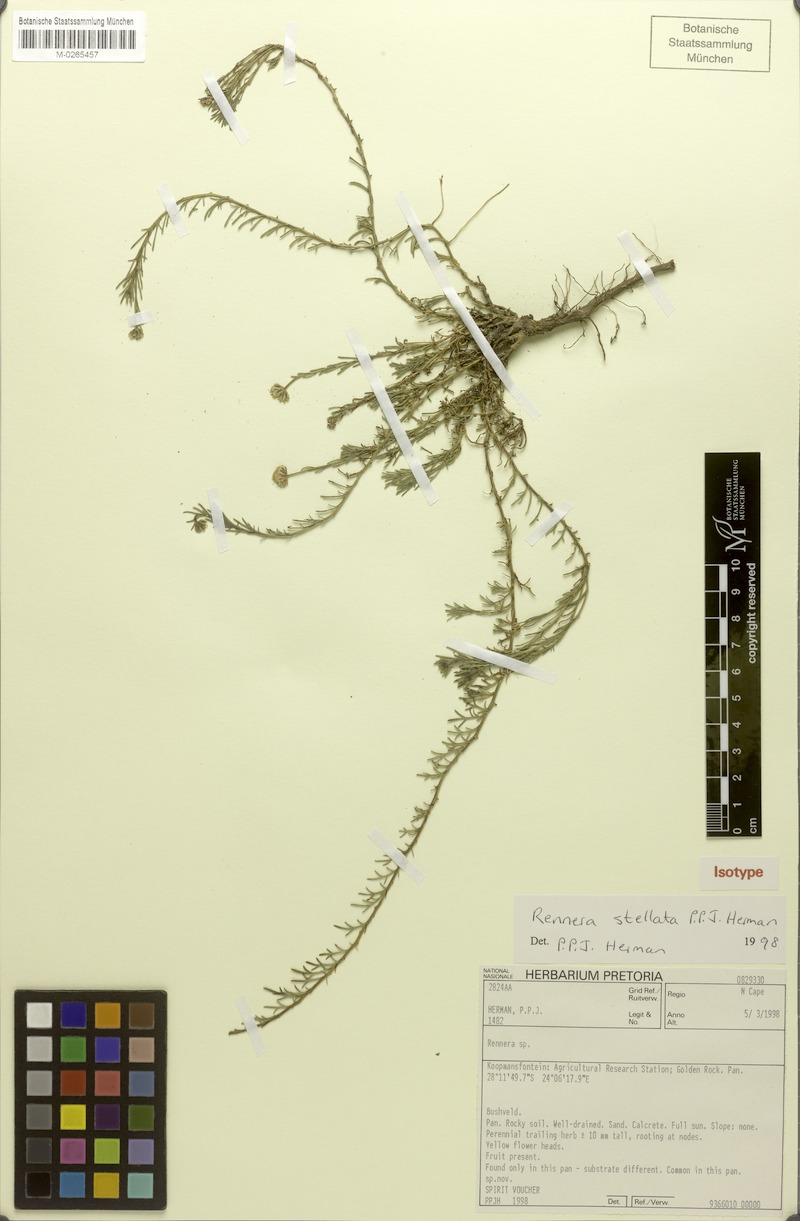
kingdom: Plantae
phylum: Tracheophyta
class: Magnoliopsida
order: Asterales
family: Asteraceae
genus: Pentzia
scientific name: Pentzia stellata
